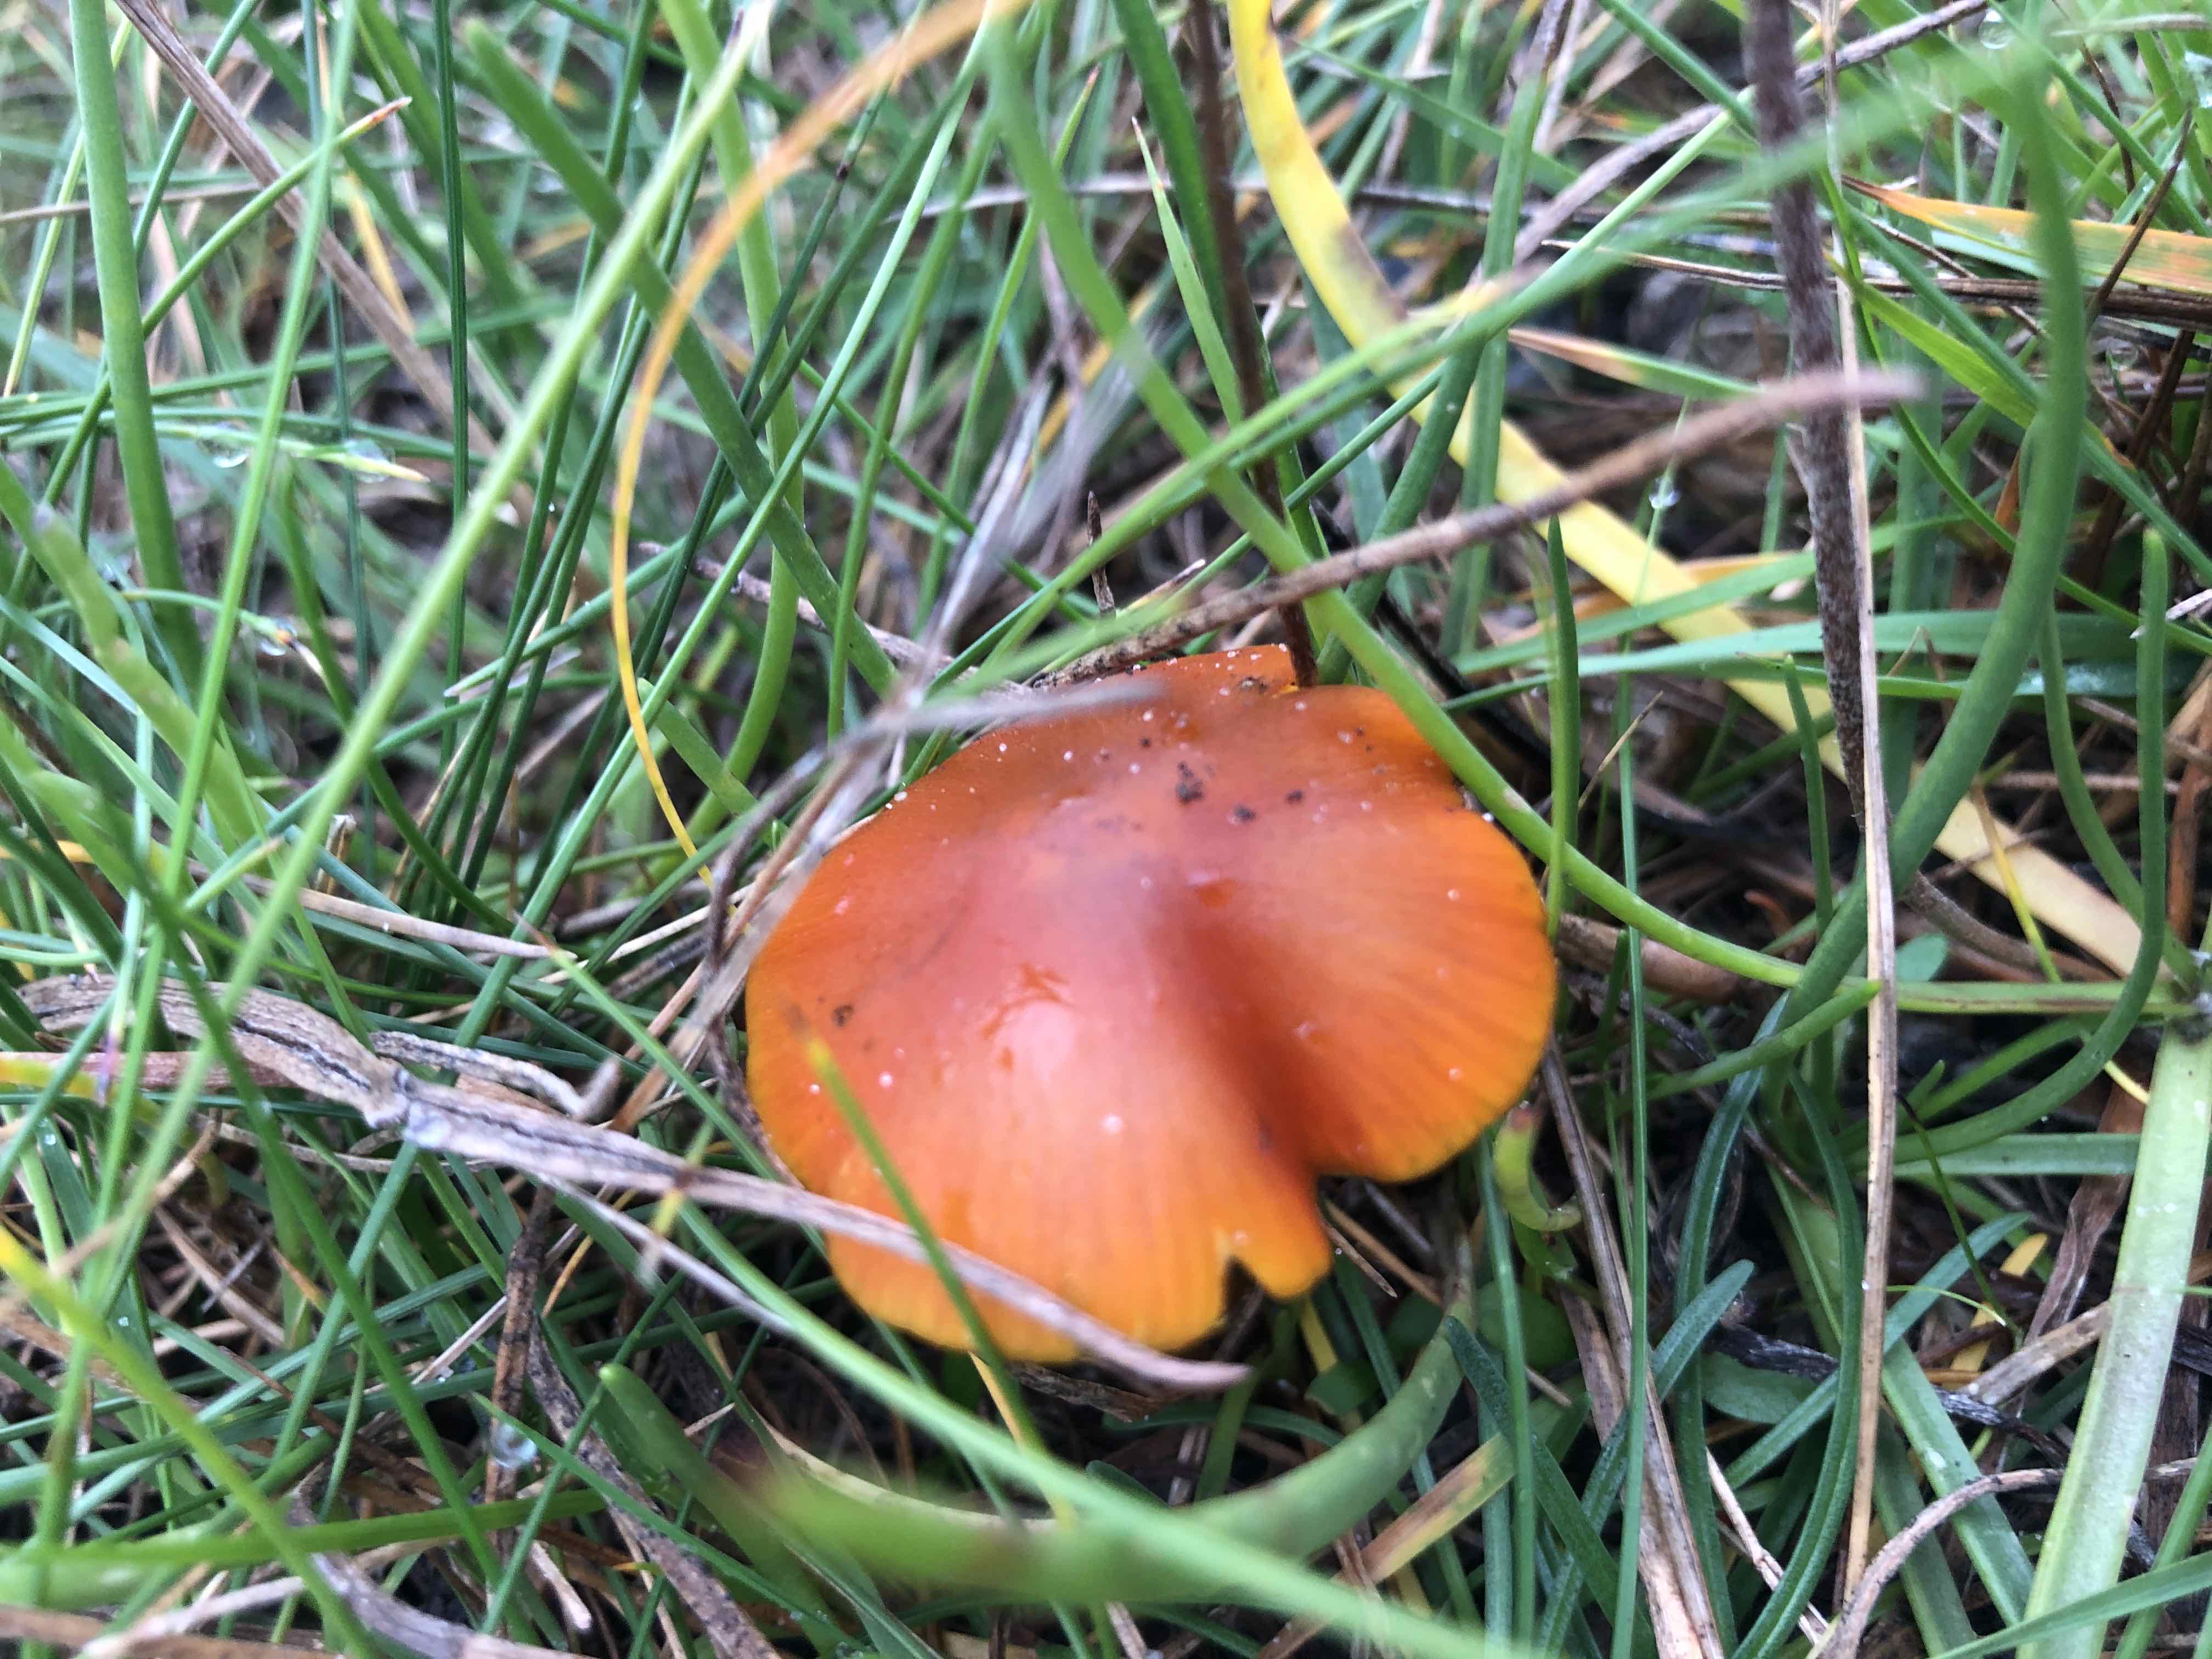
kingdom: Fungi
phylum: Basidiomycota
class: Agaricomycetes
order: Agaricales
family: Hygrophoraceae
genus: Hygrocybe
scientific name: Hygrocybe conica
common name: kegle-vokshat
